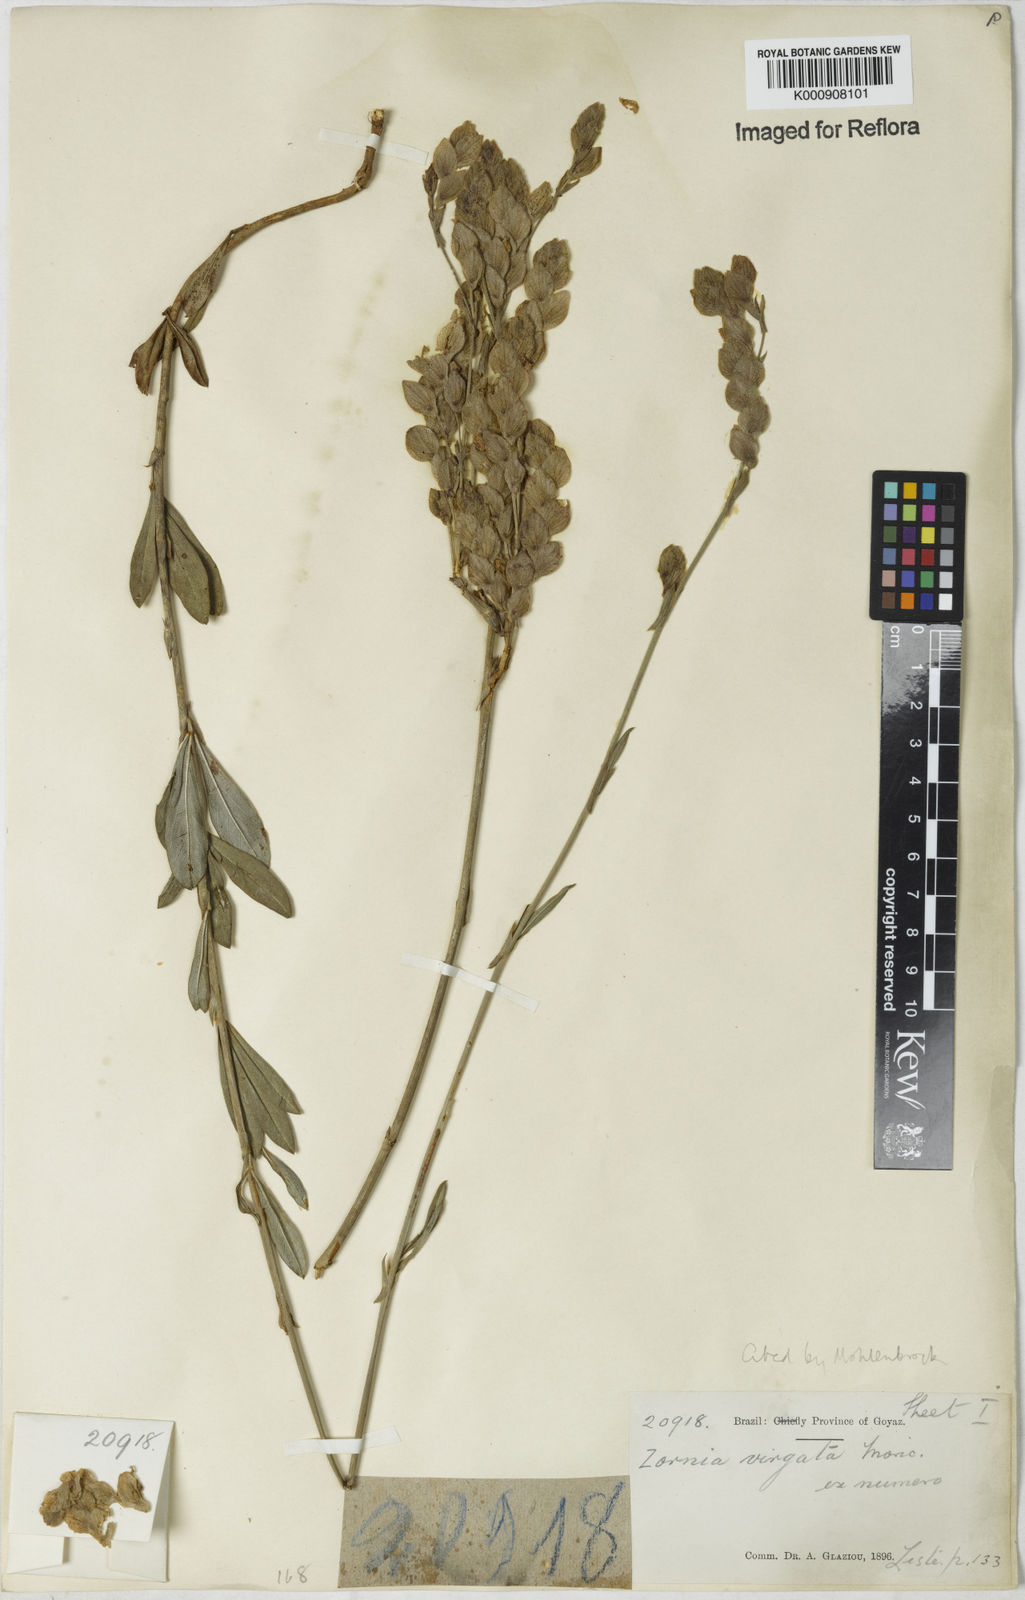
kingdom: Plantae
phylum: Tracheophyta
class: Magnoliopsida
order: Fabales
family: Fabaceae
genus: Zornia
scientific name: Zornia virgata
